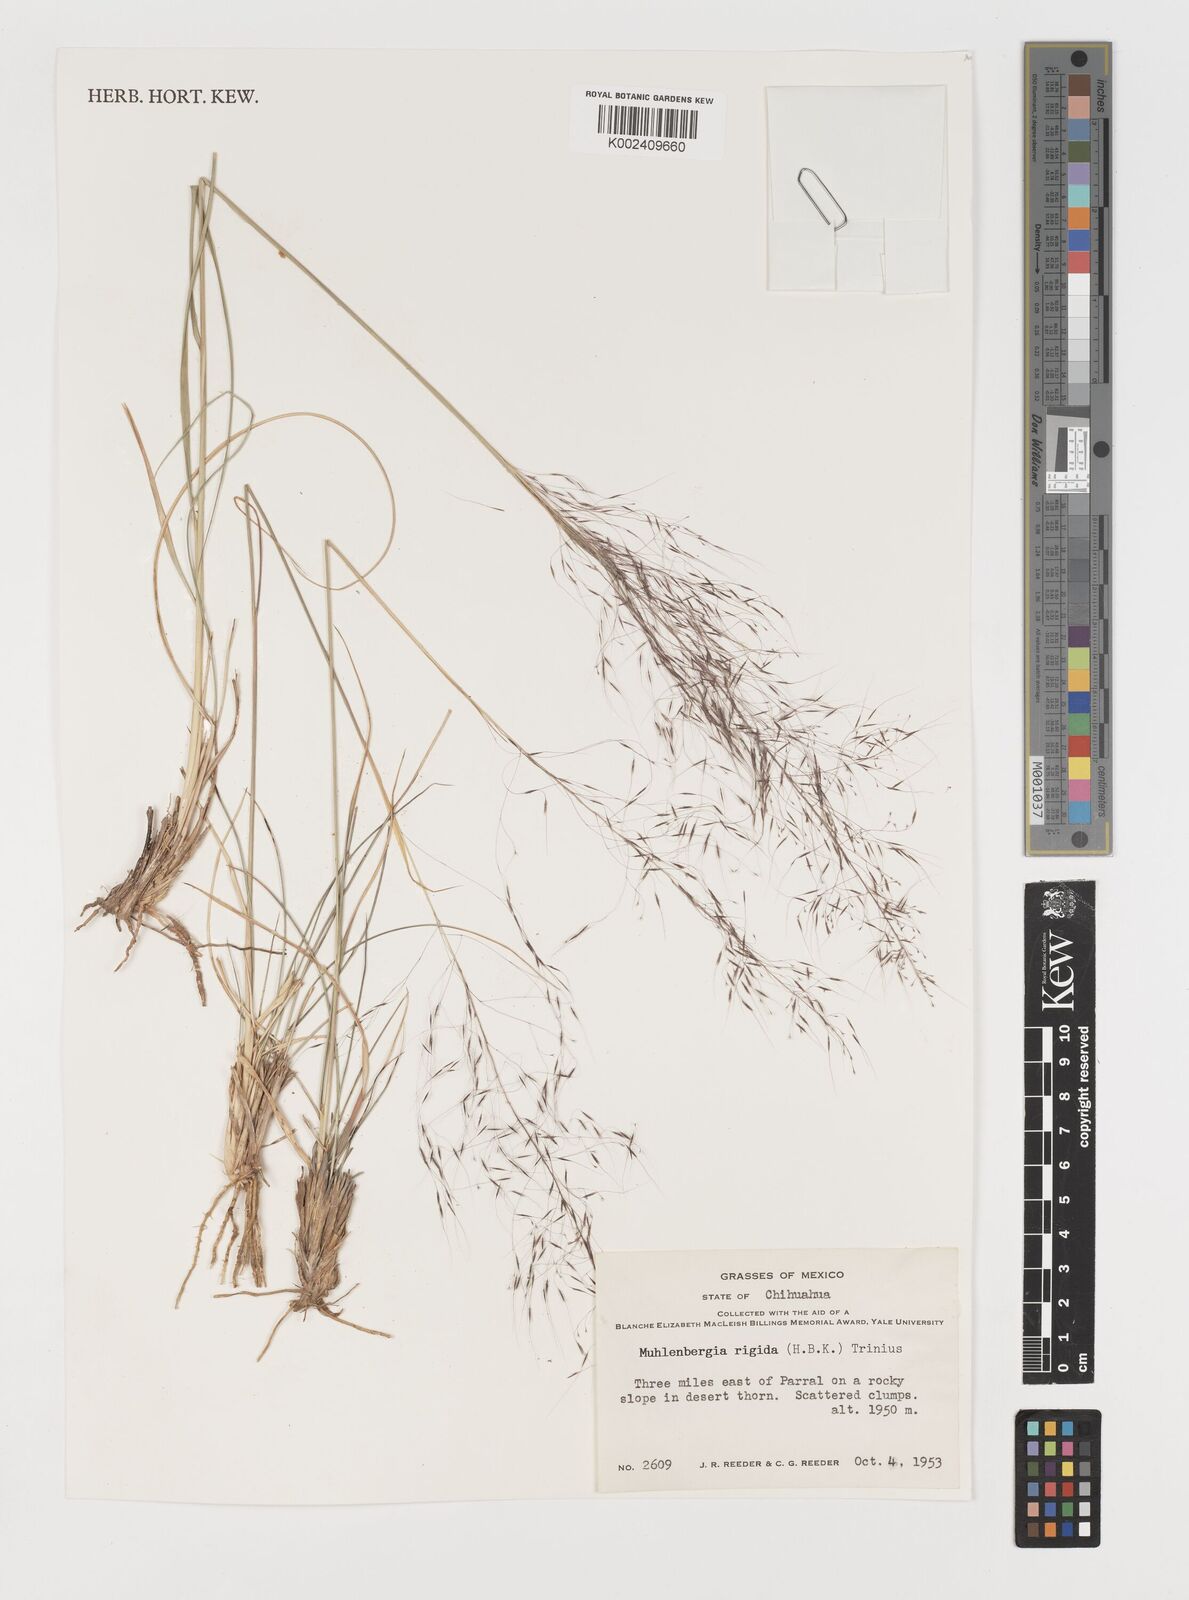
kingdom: Plantae
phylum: Tracheophyta
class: Liliopsida
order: Poales
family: Poaceae
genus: Muhlenbergia
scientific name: Muhlenbergia rigida
